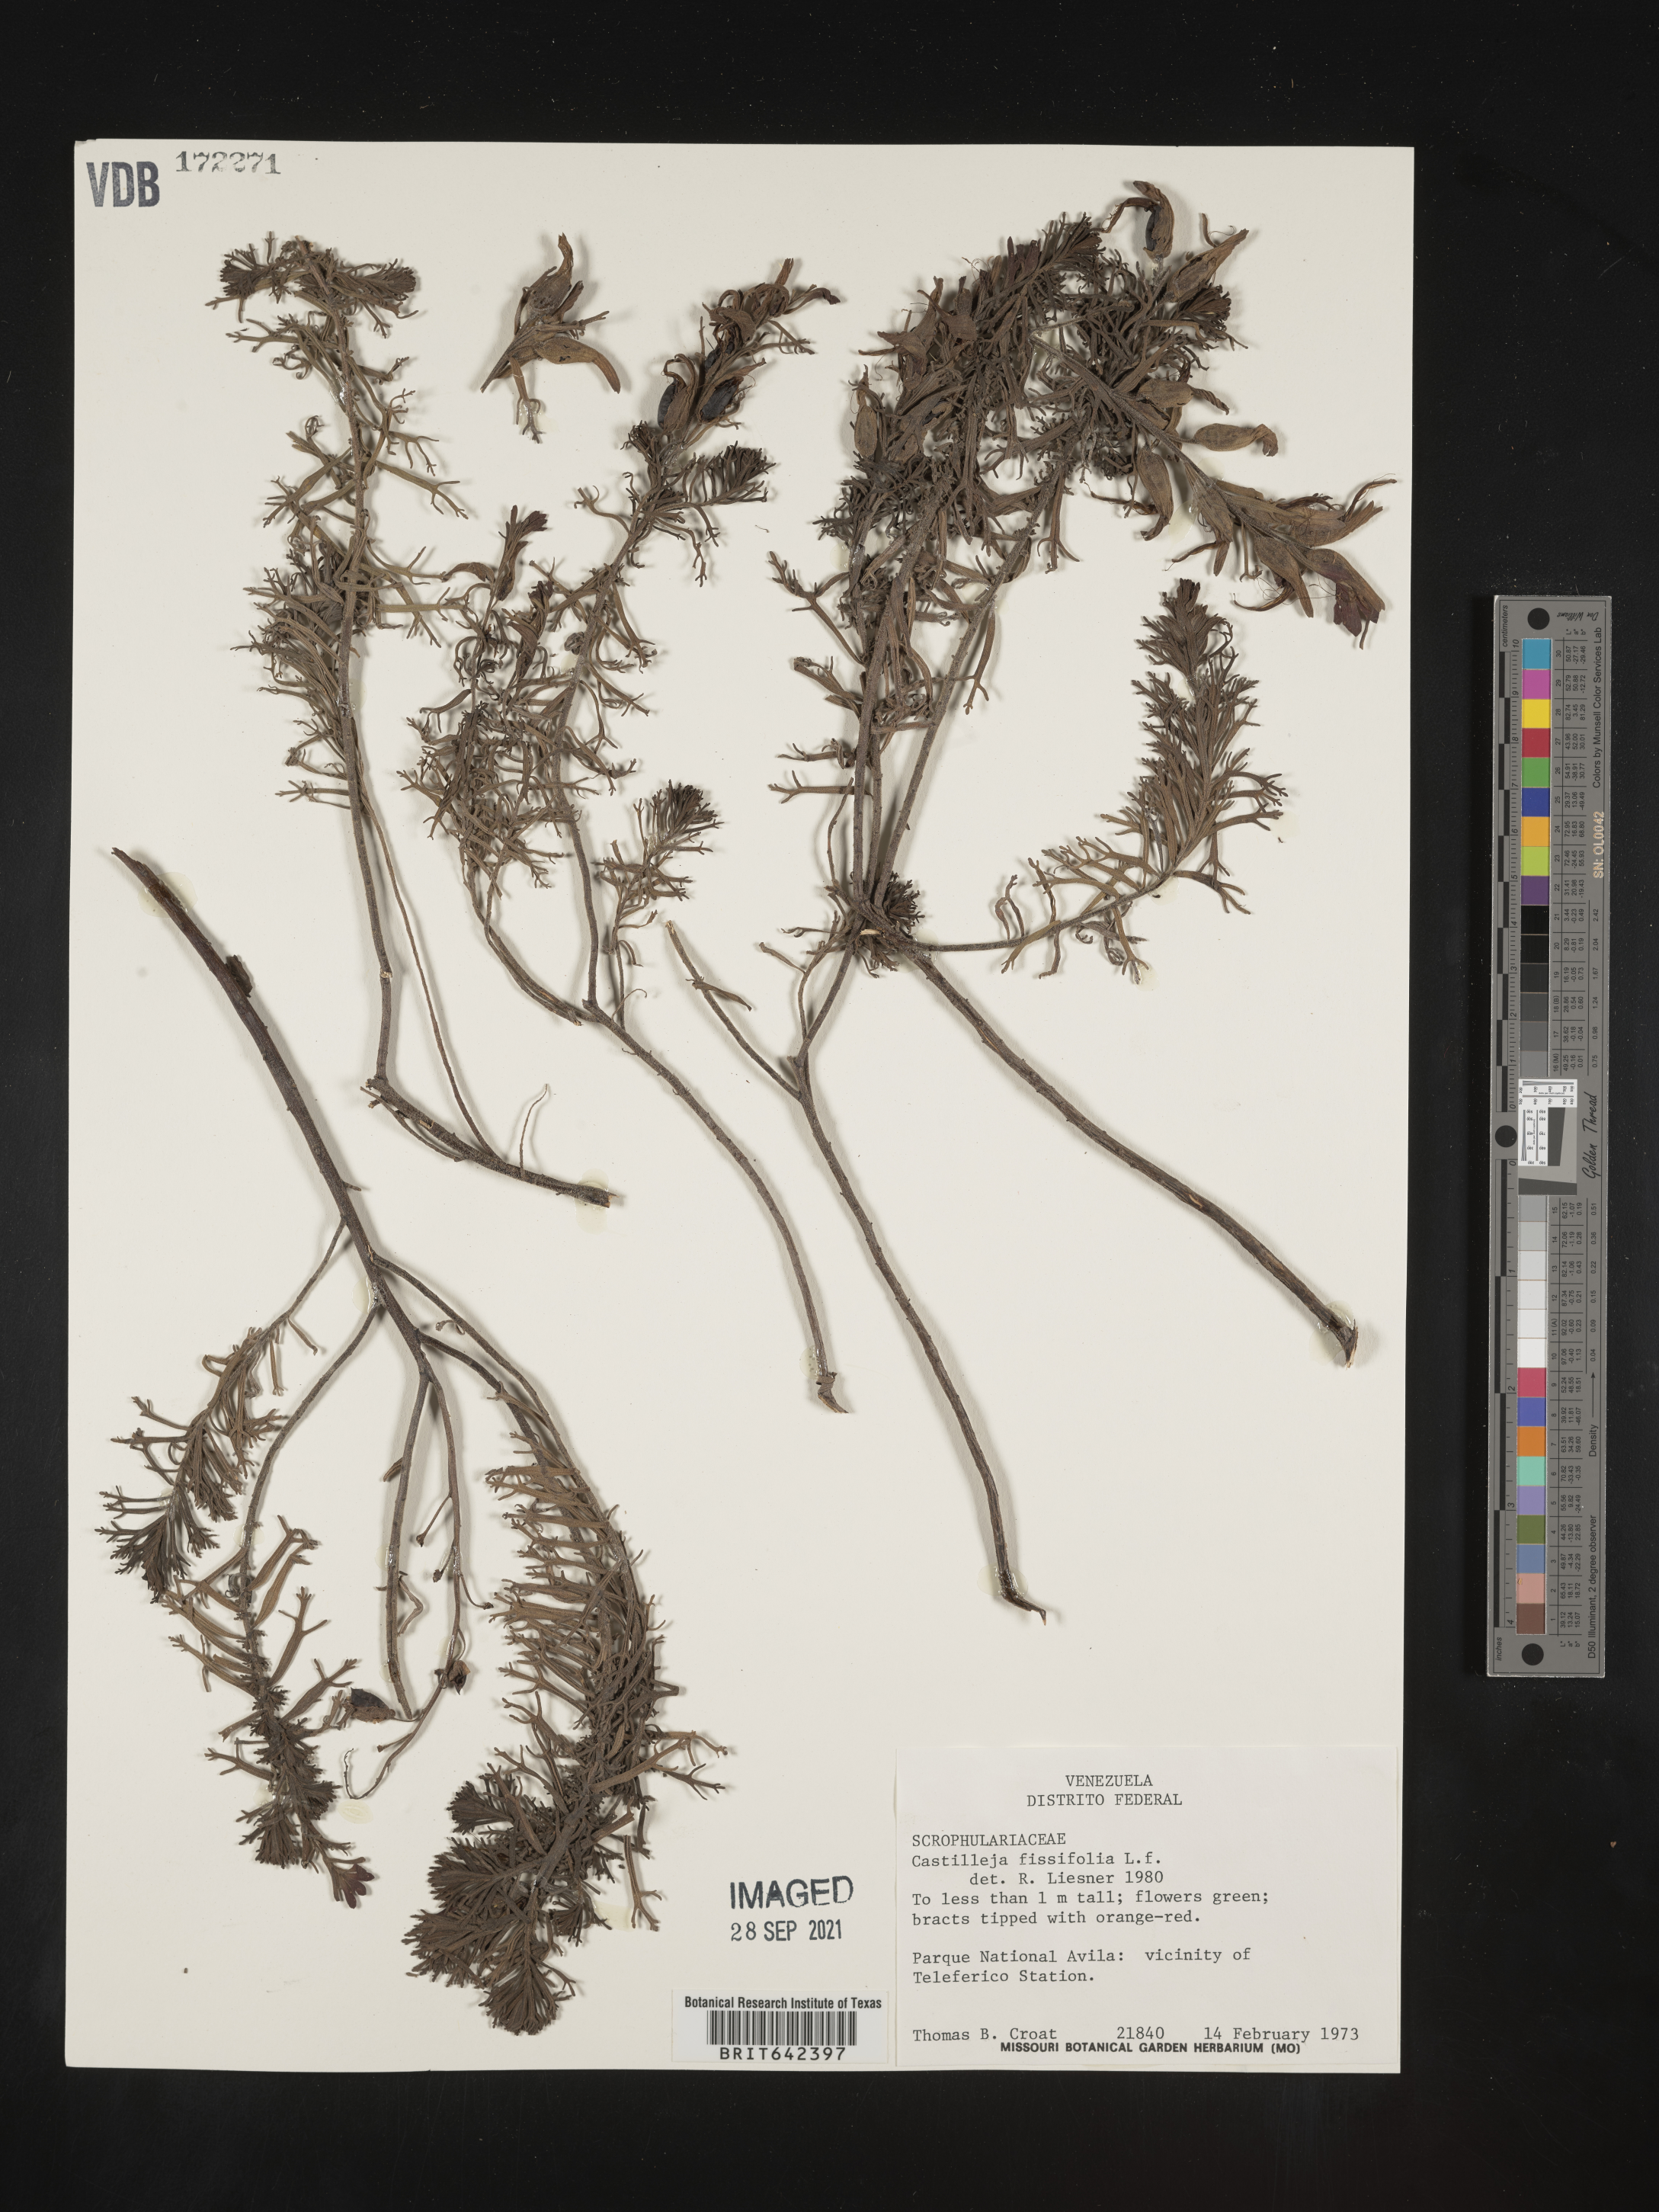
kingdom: Plantae
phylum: Tracheophyta
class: Magnoliopsida
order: Lamiales
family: Orobanchaceae
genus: Castilleja
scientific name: Castilleja
